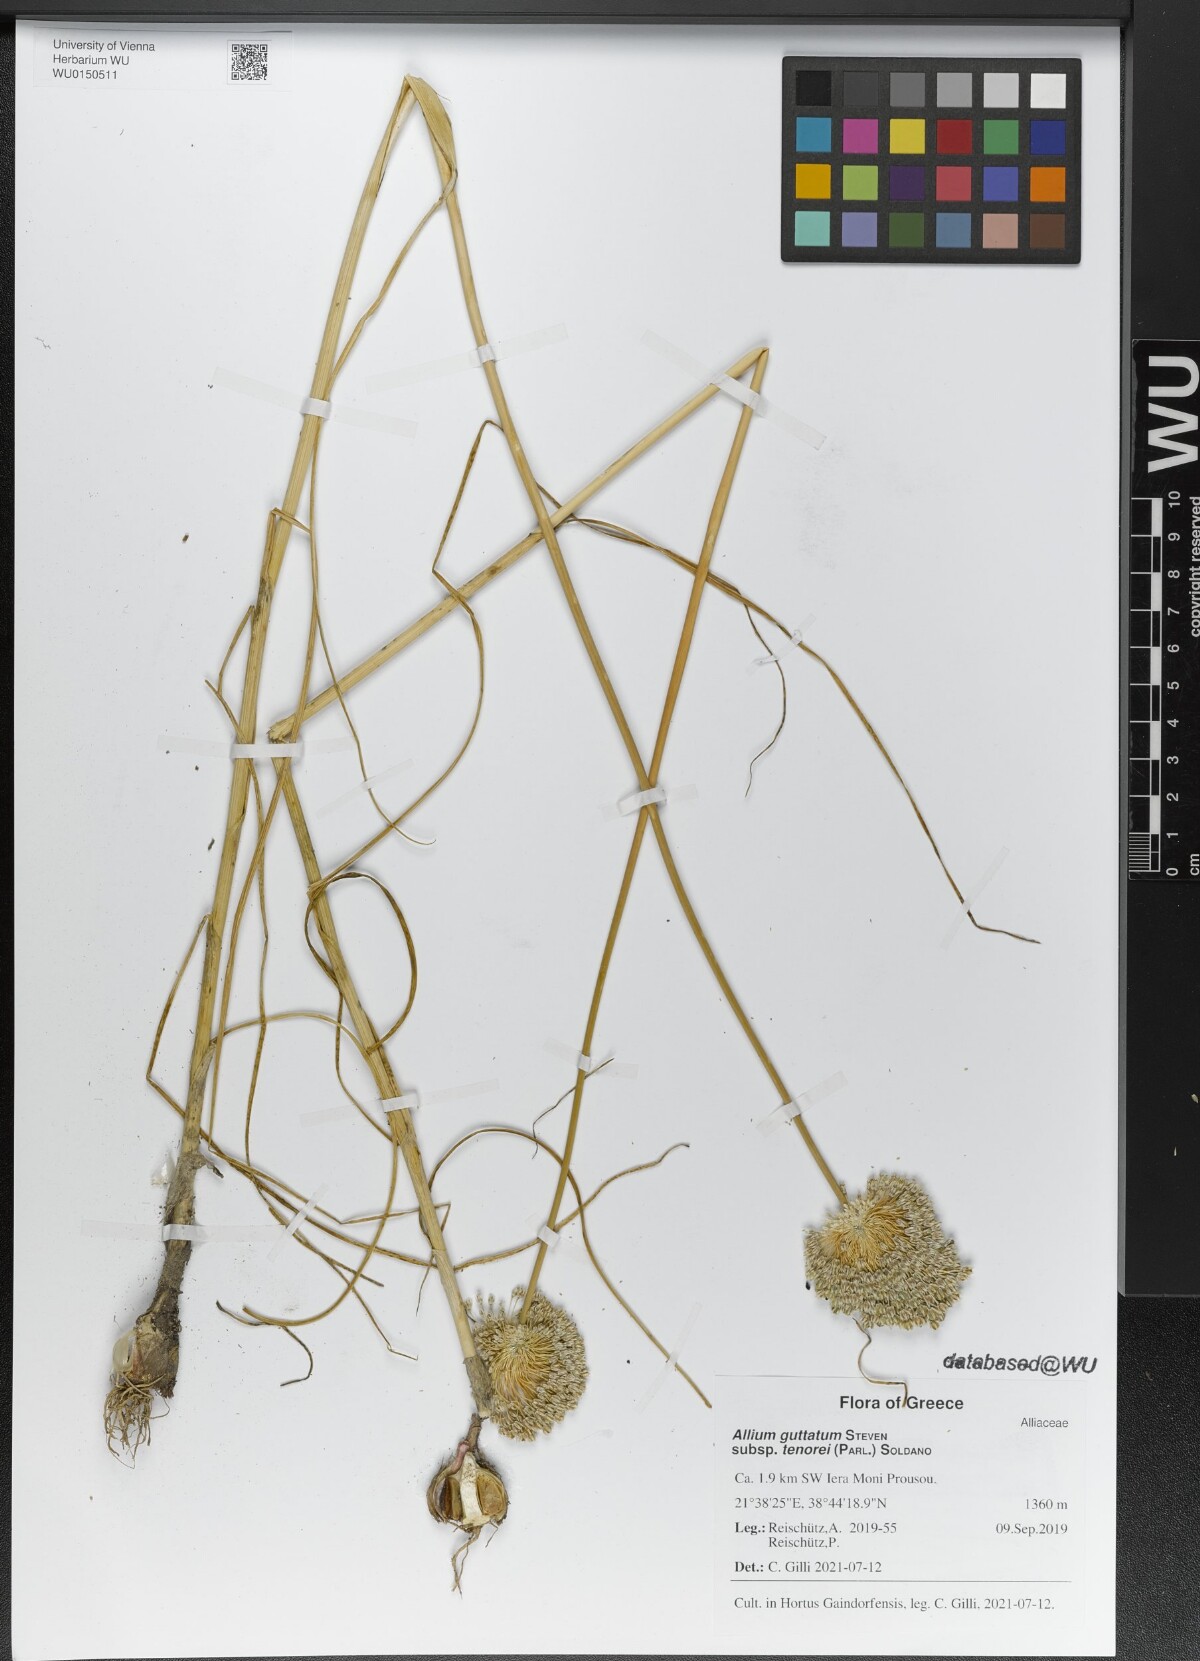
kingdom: Plantae
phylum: Tracheophyta
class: Liliopsida
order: Asparagales
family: Amaryllidaceae
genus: Allium
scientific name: Allium sardoum
